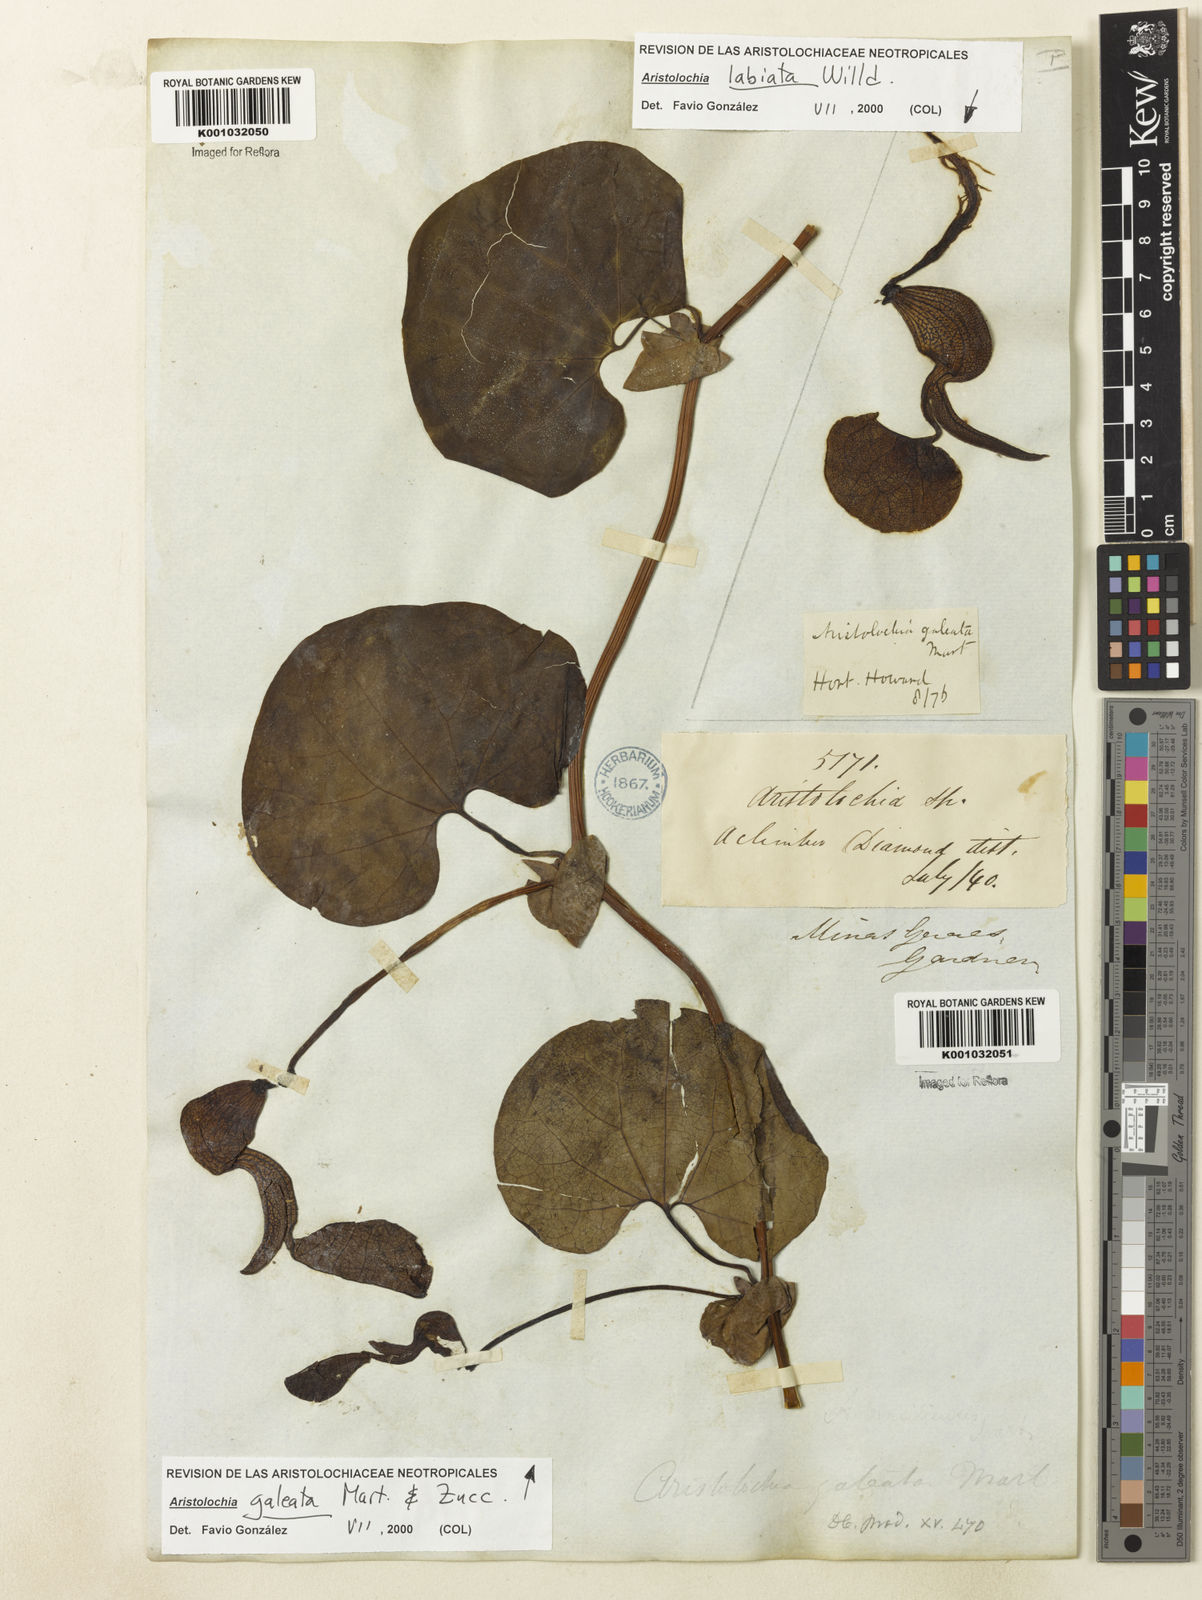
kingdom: Plantae
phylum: Tracheophyta
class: Magnoliopsida
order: Piperales
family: Aristolochiaceae
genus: Aristolochia
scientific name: Aristolochia
